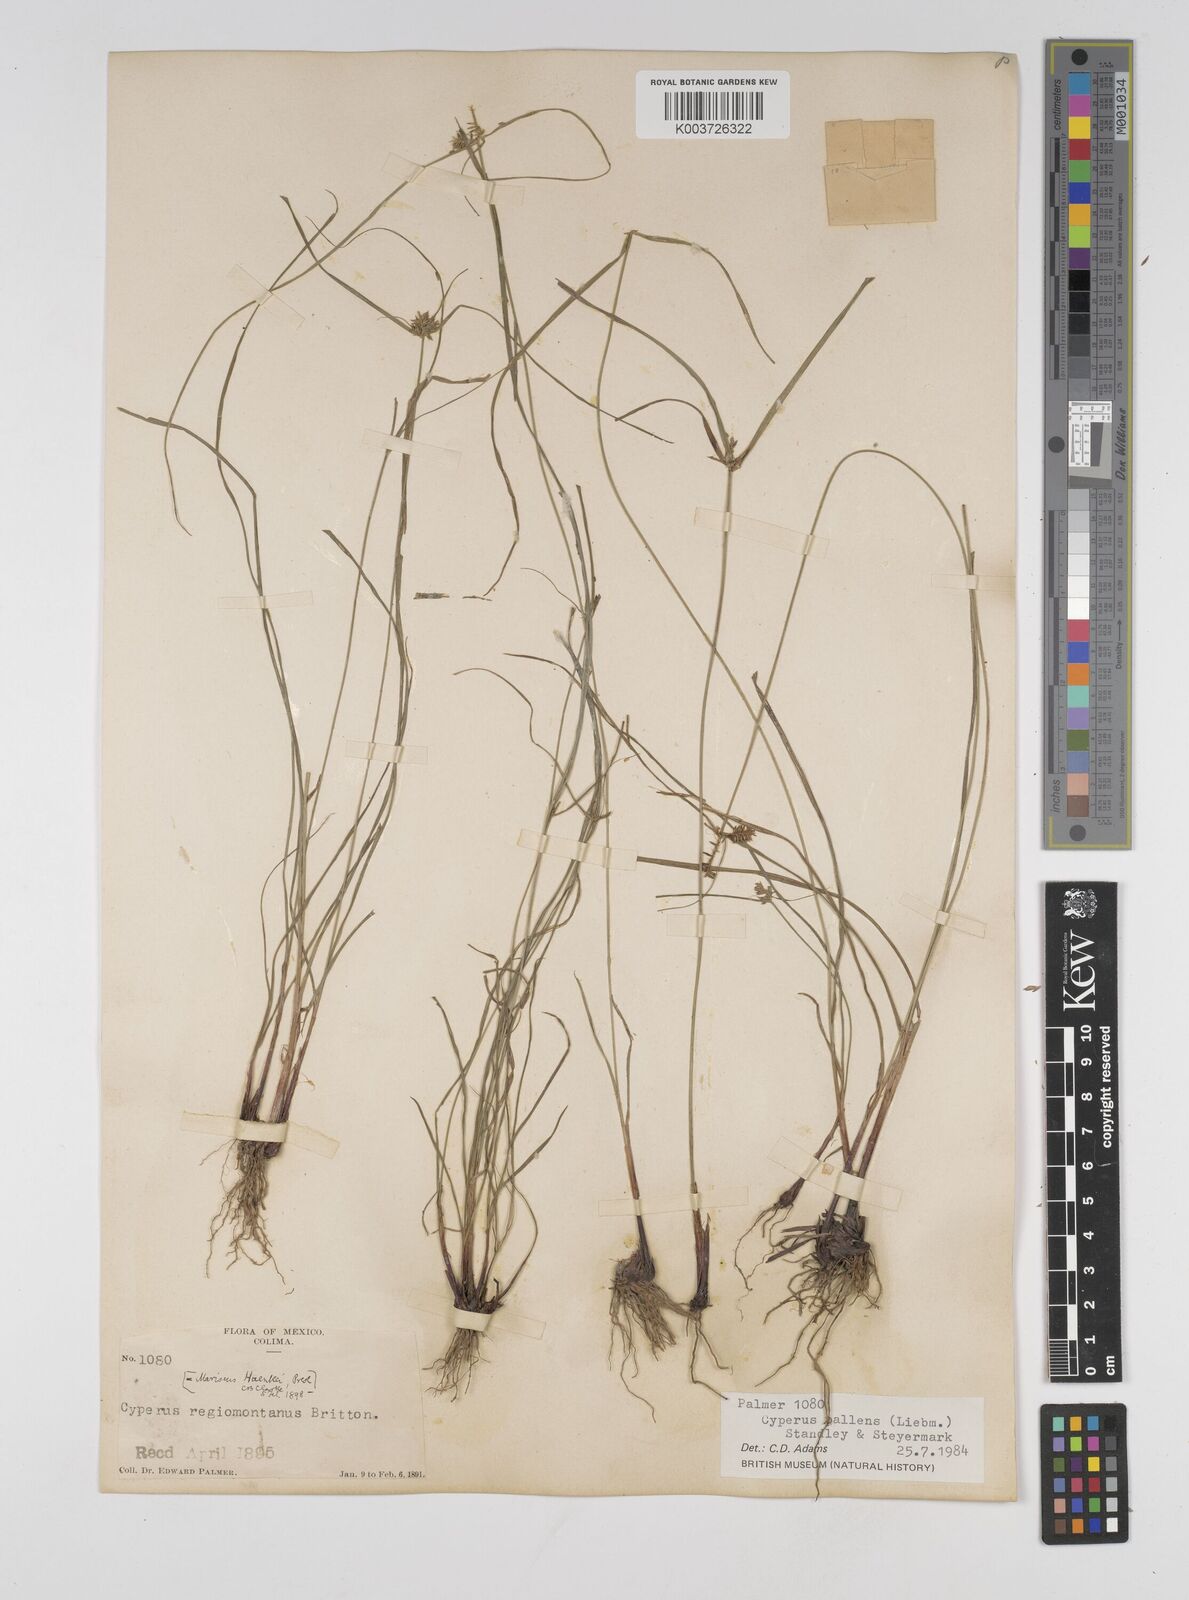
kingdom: Plantae
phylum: Tracheophyta
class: Liliopsida
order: Poales
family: Cyperaceae
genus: Cyperus
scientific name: Cyperus regiomontanus
